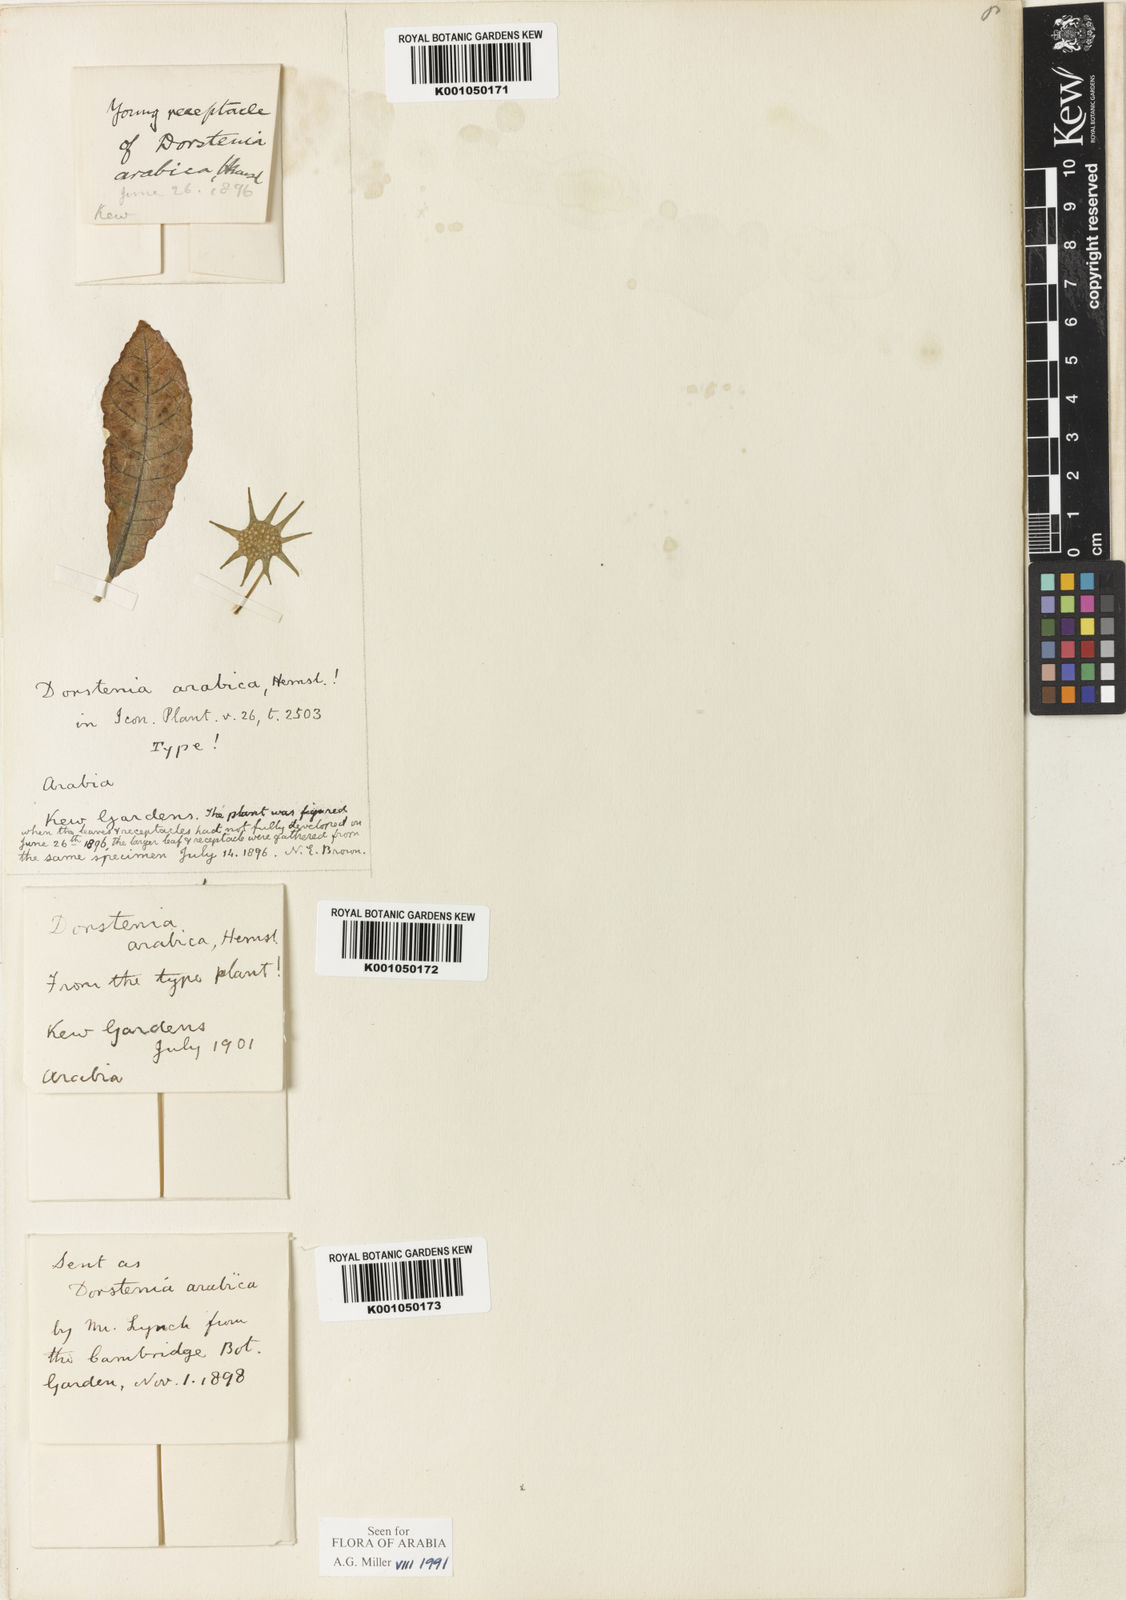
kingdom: Plantae
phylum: Tracheophyta
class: Magnoliopsida
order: Rosales
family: Moraceae
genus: Dorstenia
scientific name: Dorstenia foetida
